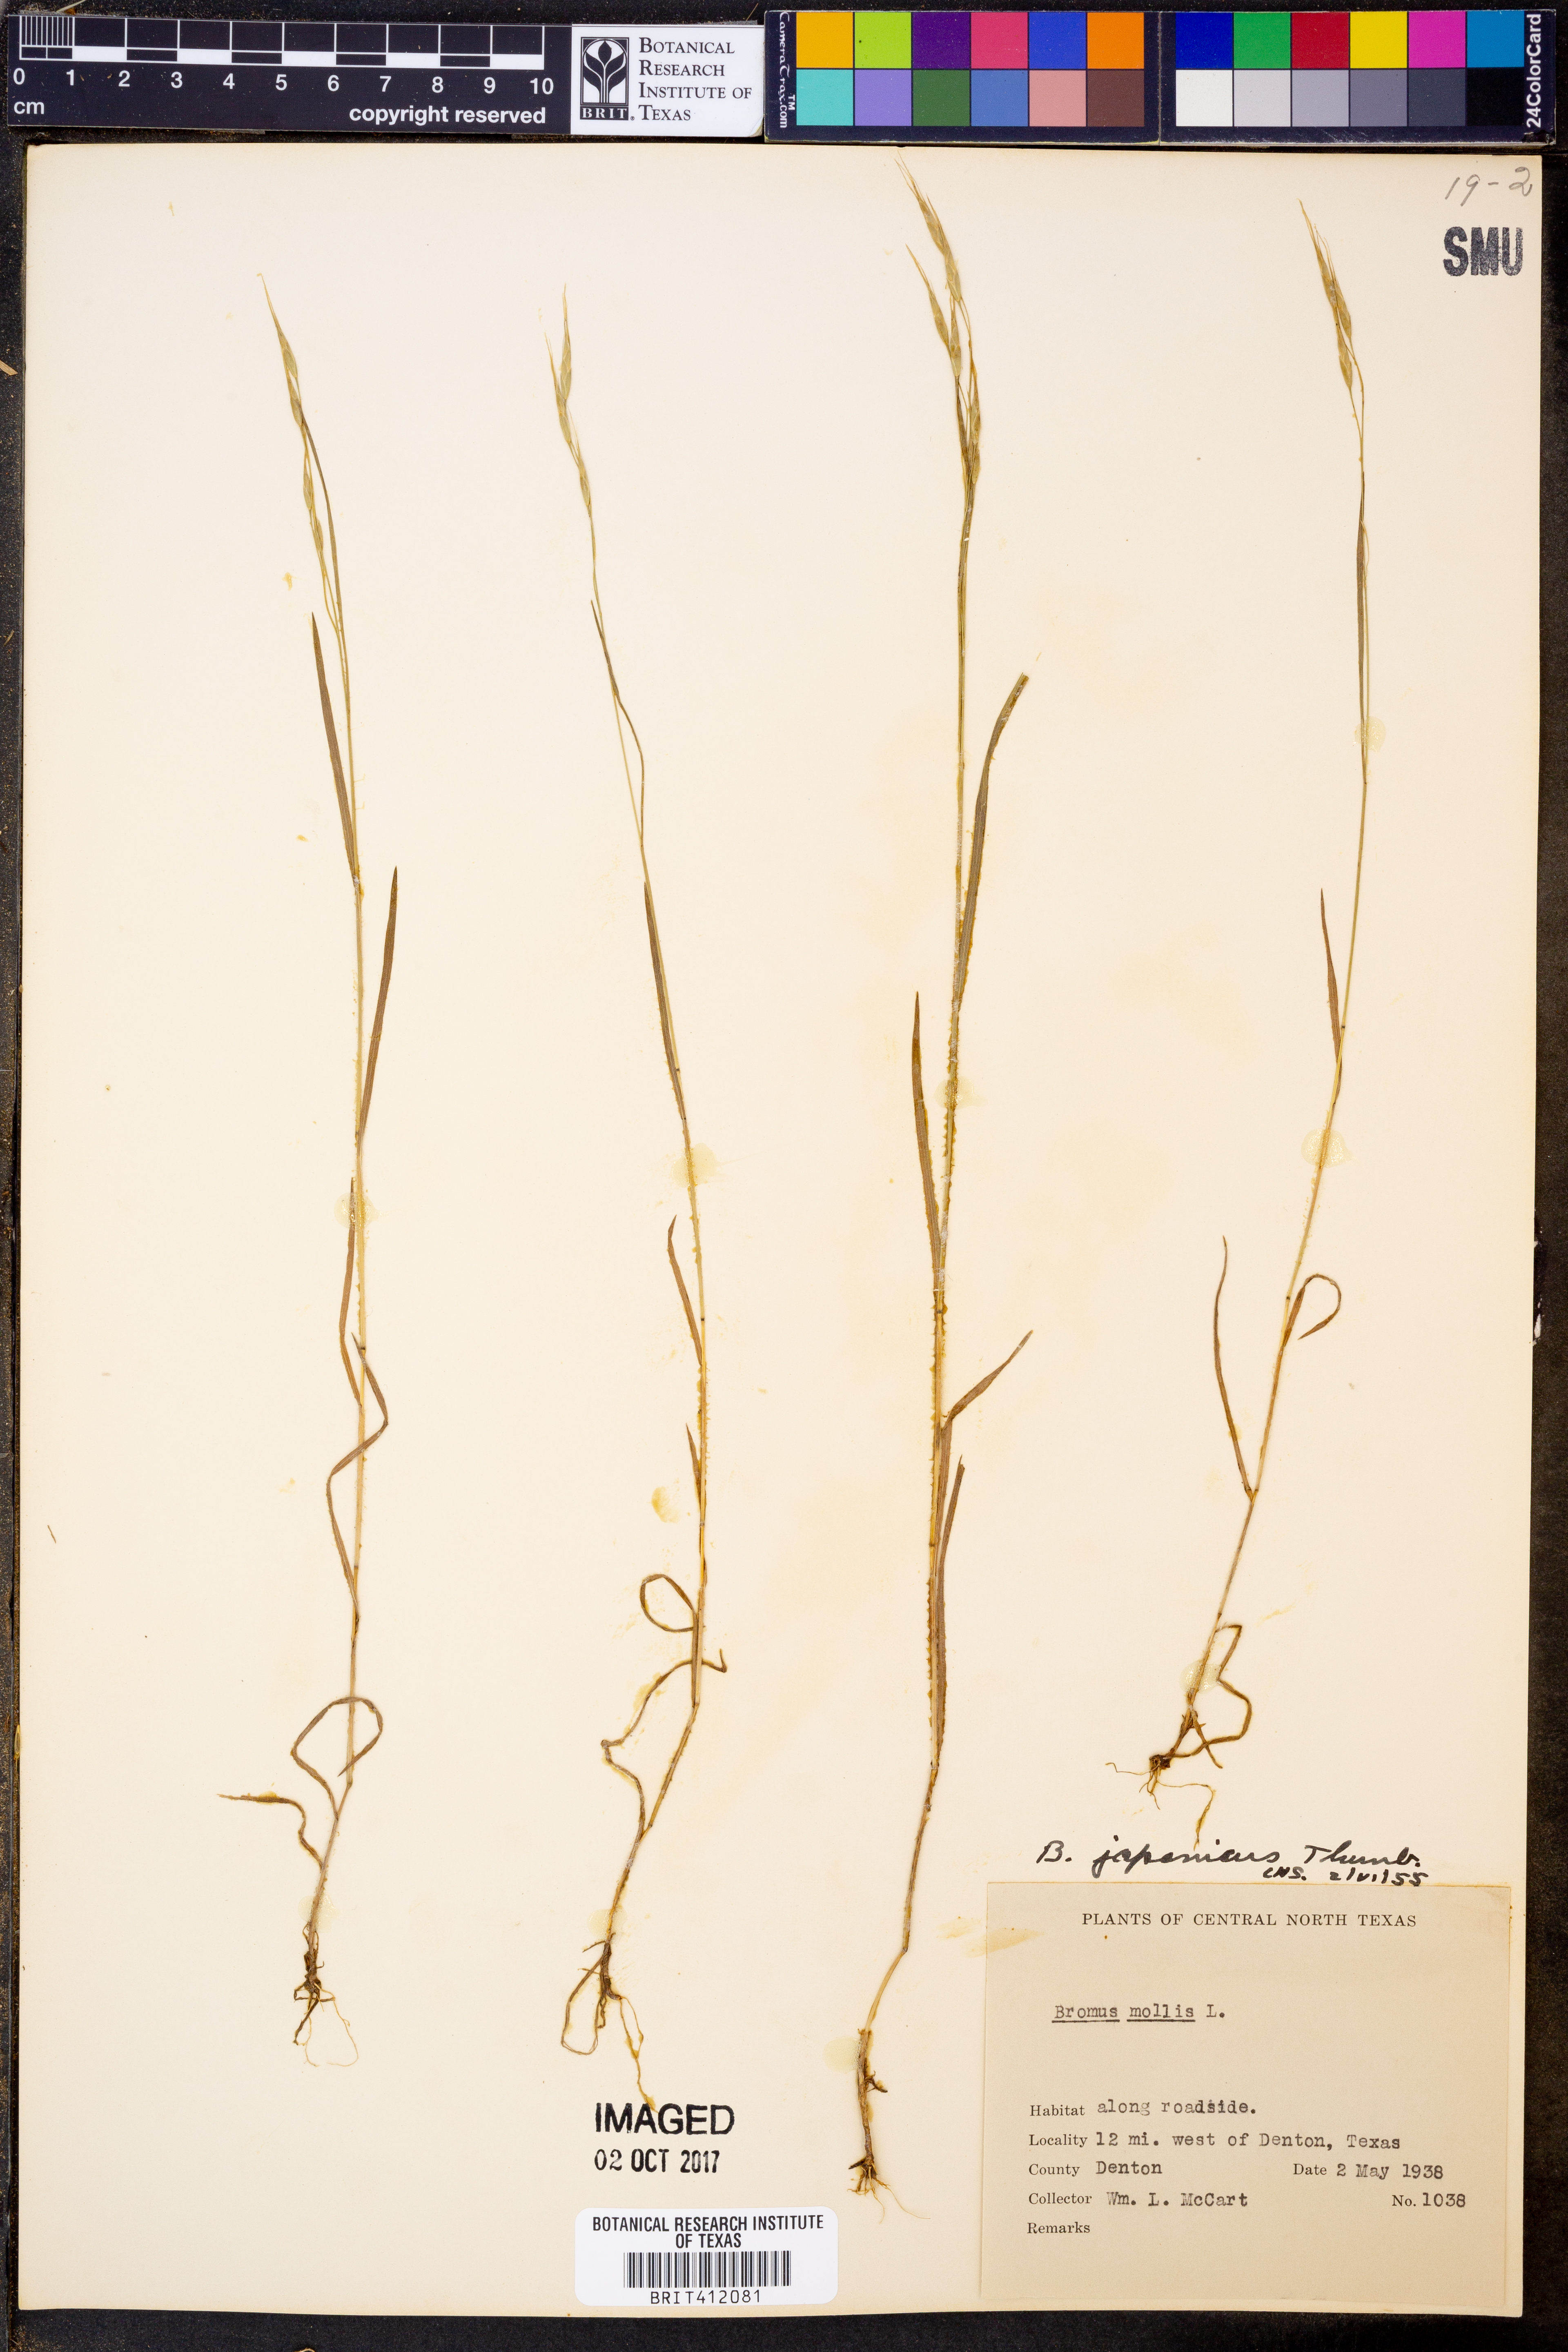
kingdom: Plantae
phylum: Tracheophyta
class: Liliopsida
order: Poales
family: Poaceae
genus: Bromus
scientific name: Bromus japonicus
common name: Japanese brome
